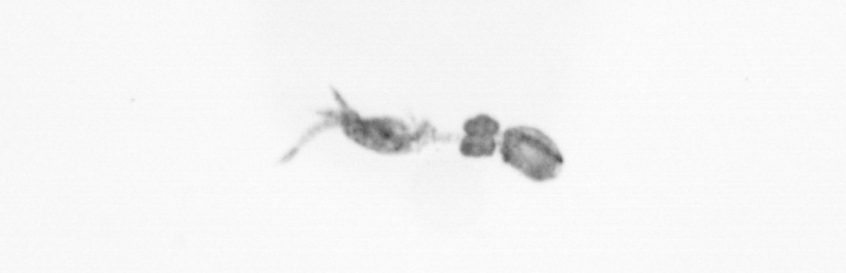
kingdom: Animalia
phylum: Arthropoda
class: Copepoda
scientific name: Copepoda
